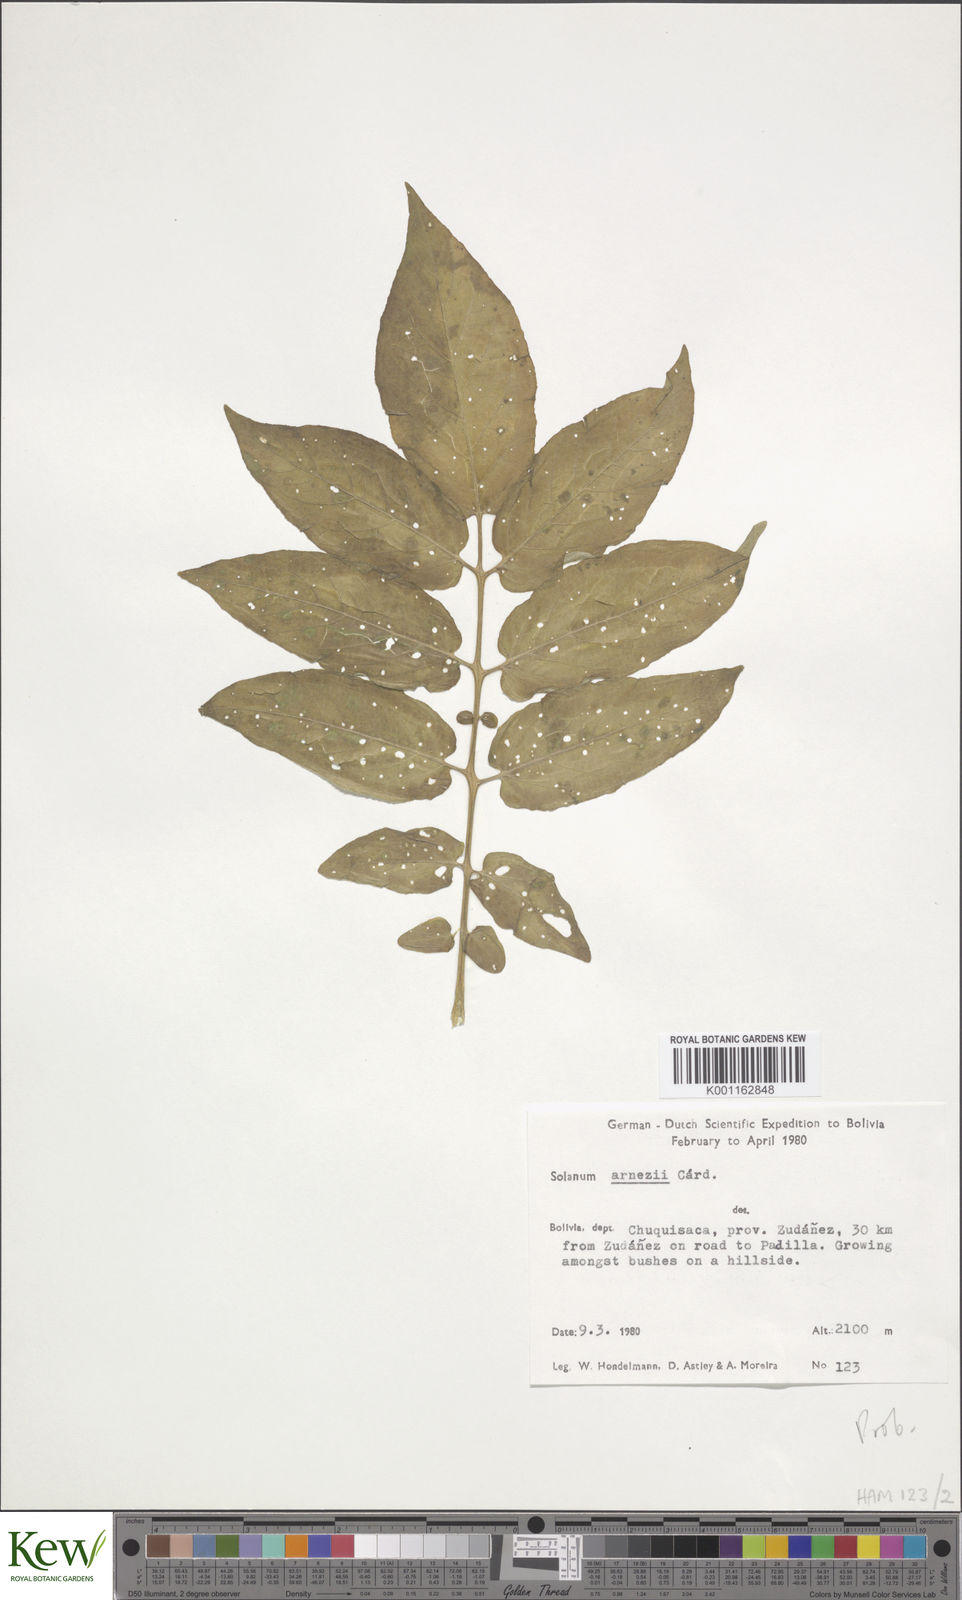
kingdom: Plantae
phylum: Tracheophyta
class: Magnoliopsida
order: Solanales
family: Solanaceae
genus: Solanum
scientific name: Solanum
